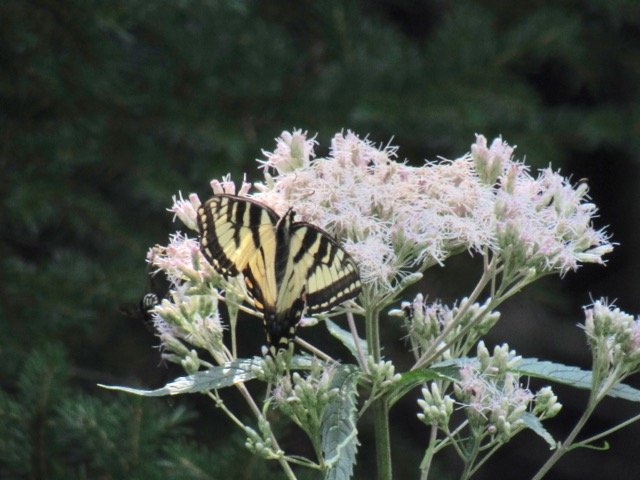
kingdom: Animalia
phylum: Arthropoda
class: Insecta
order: Lepidoptera
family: Papilionidae
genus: Pterourus
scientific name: Pterourus
